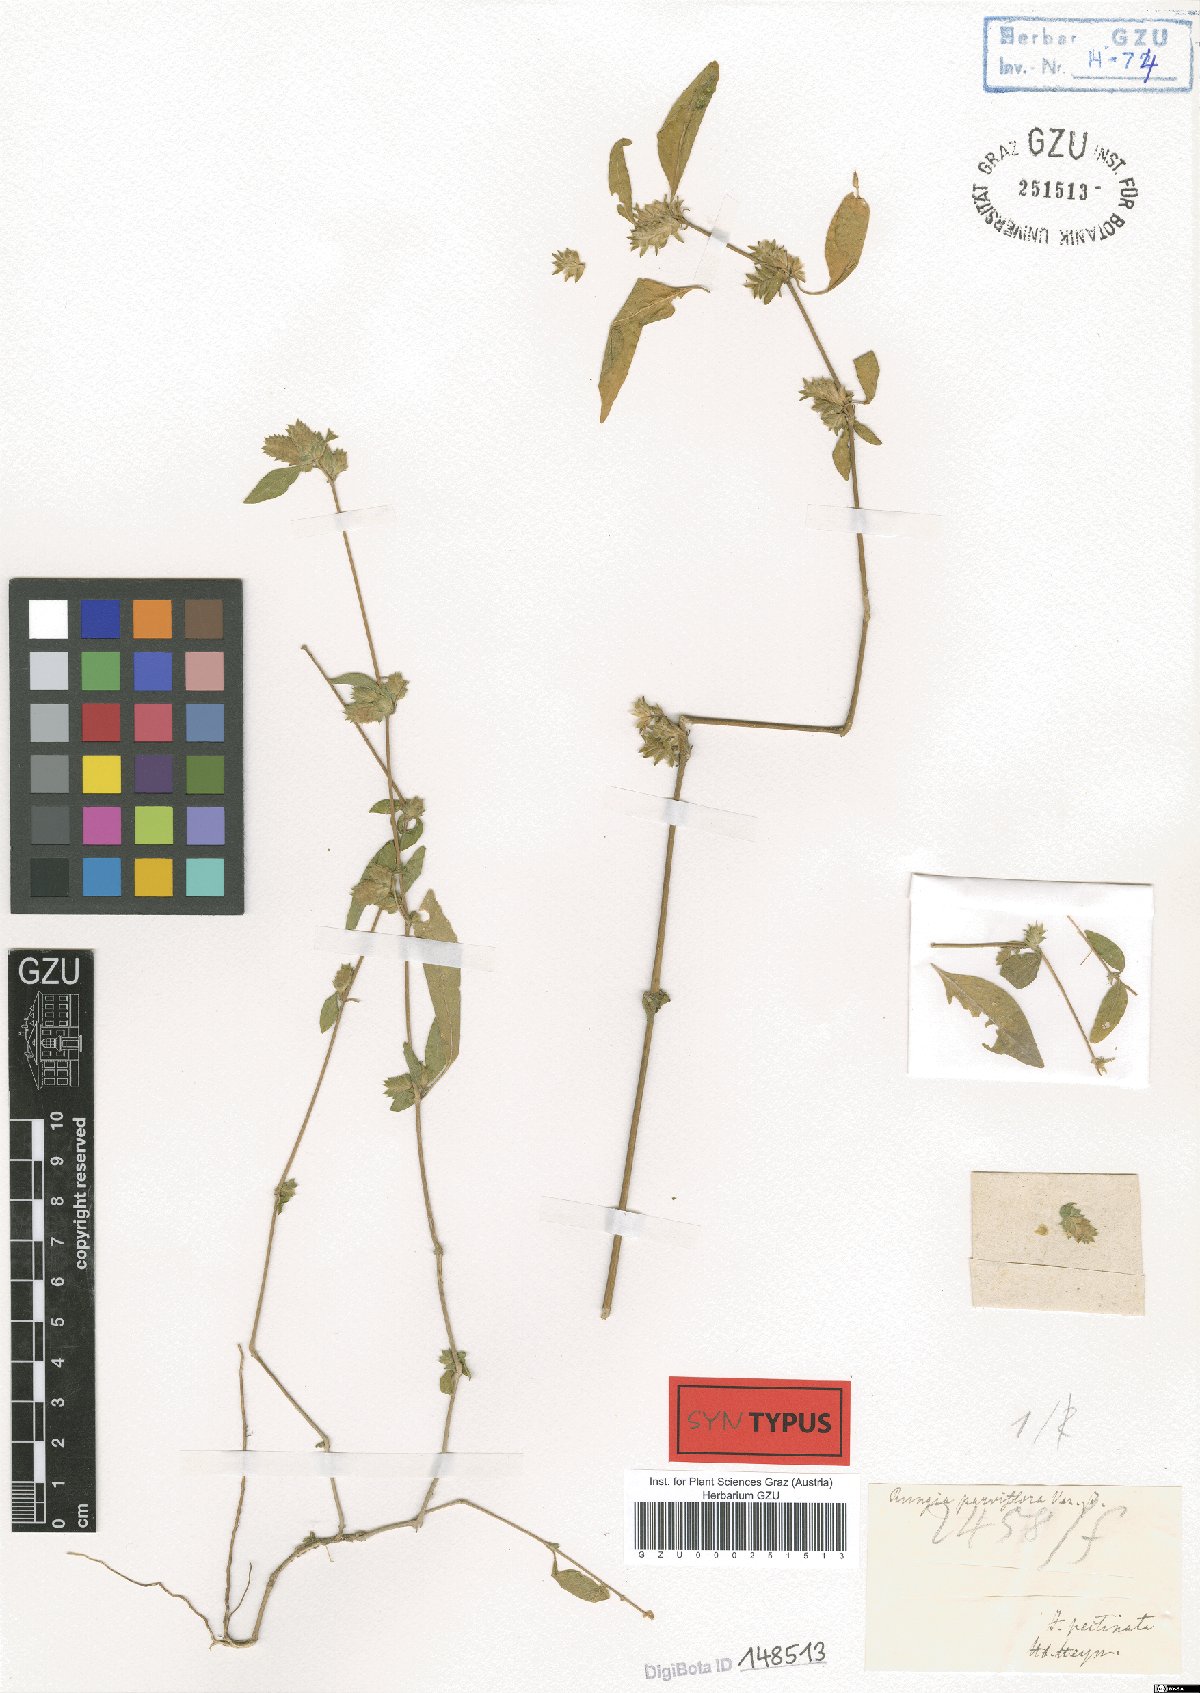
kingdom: Plantae
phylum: Tracheophyta
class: Magnoliopsida
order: Lamiales
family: Acanthaceae
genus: Rungia
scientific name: Rungia parviflora
